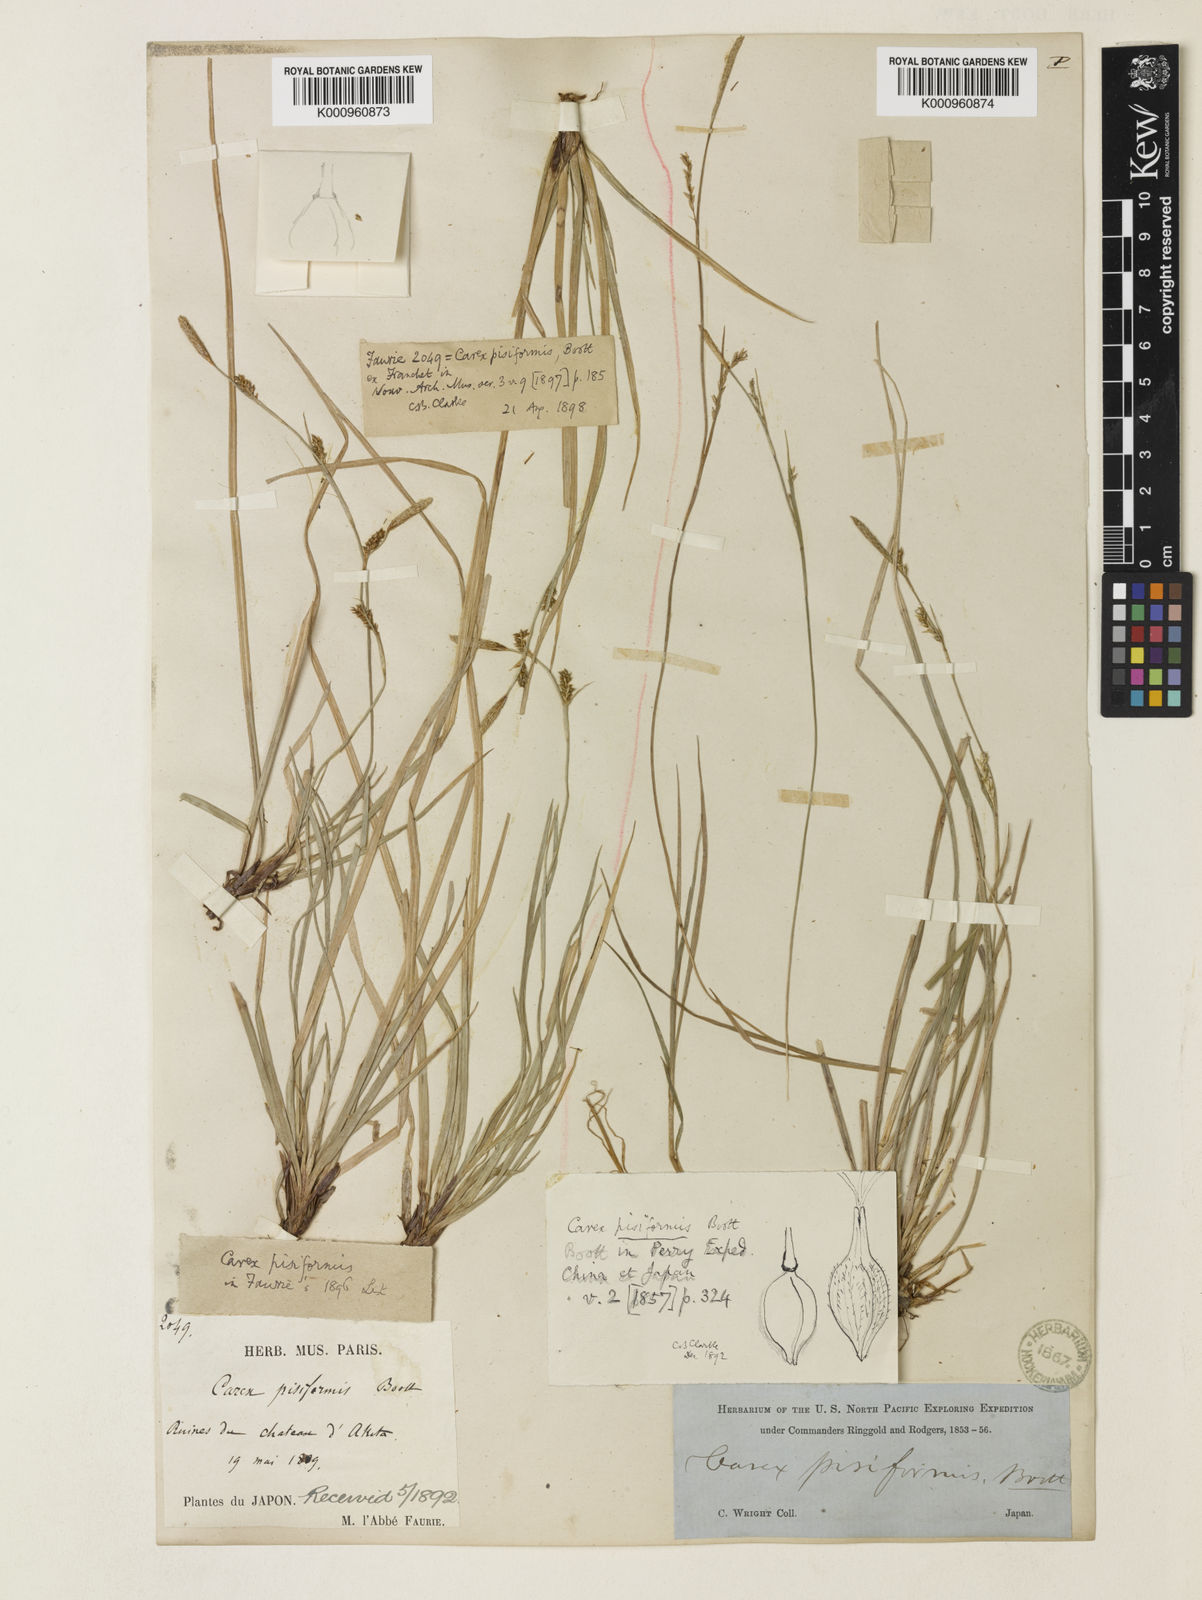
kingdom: Plantae
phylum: Tracheophyta
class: Liliopsida
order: Poales
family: Cyperaceae
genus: Carex
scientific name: Carex pisiformis
